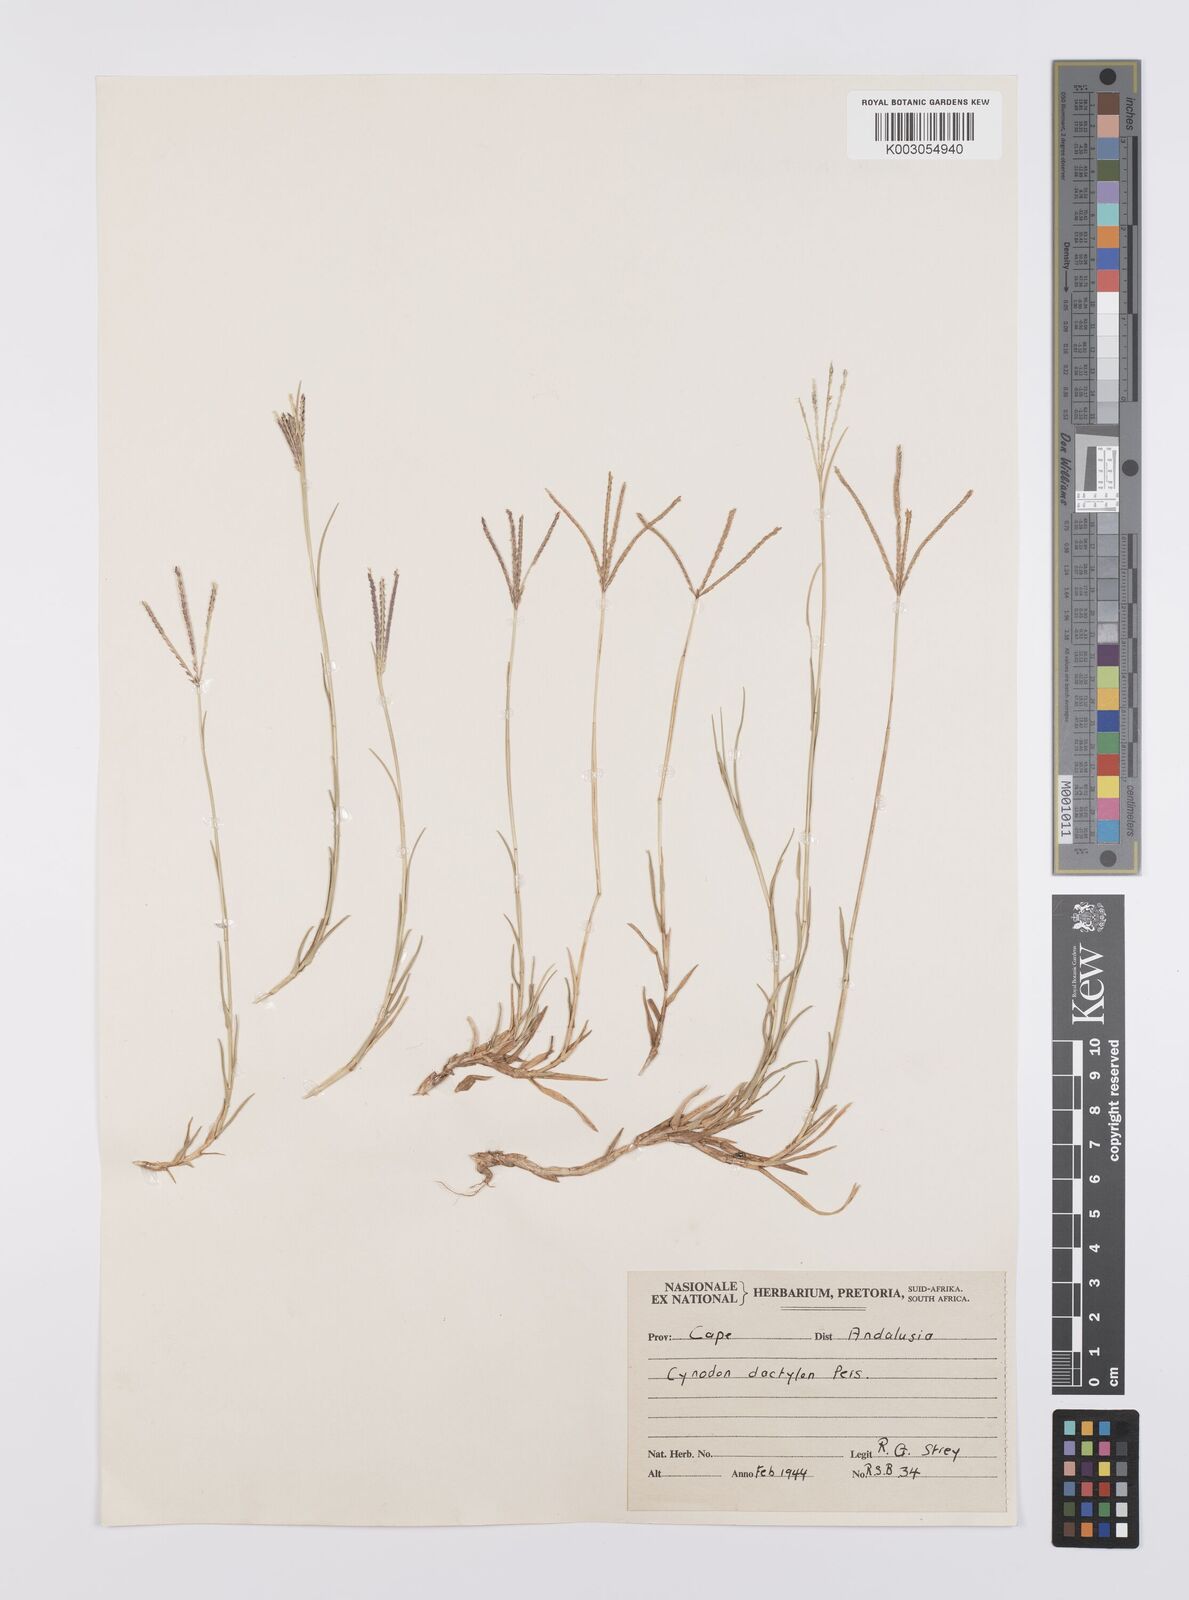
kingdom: Plantae
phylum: Tracheophyta
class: Liliopsida
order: Poales
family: Poaceae
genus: Cynodon
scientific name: Cynodon dactylon
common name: Bermuda grass
